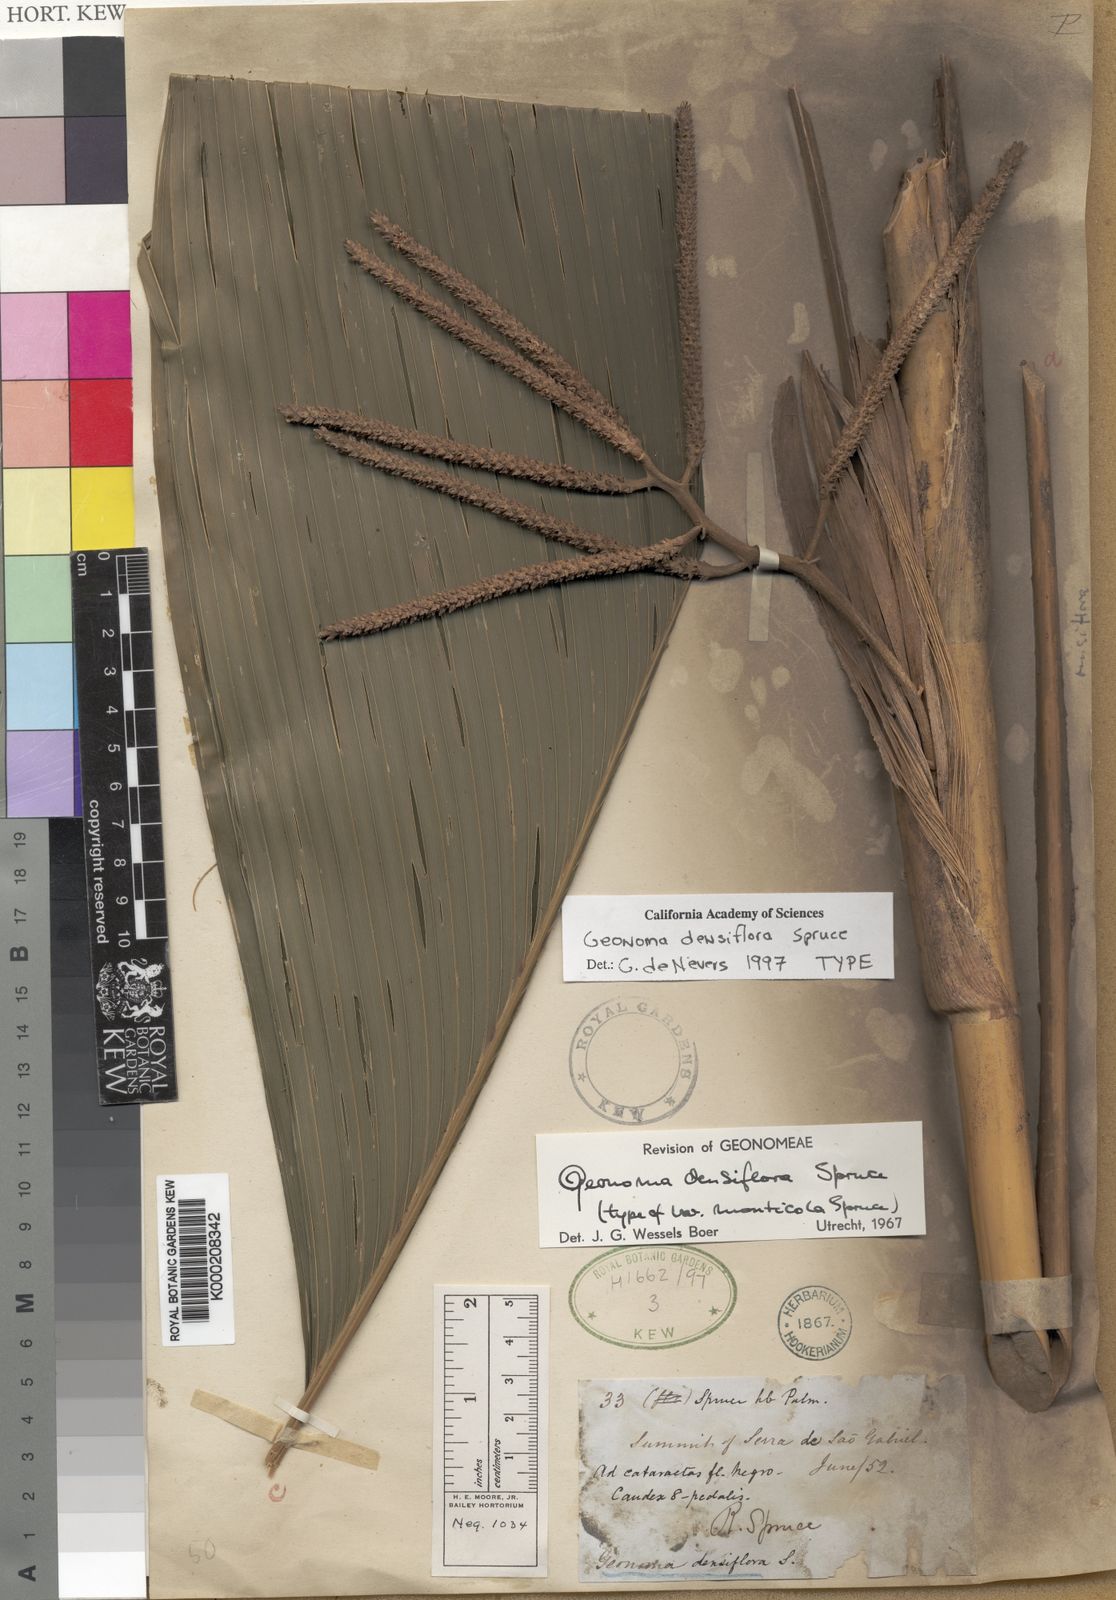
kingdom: Plantae
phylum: Tracheophyta
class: Liliopsida
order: Arecales
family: Arecaceae
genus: Geonoma
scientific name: Geonoma maxima
